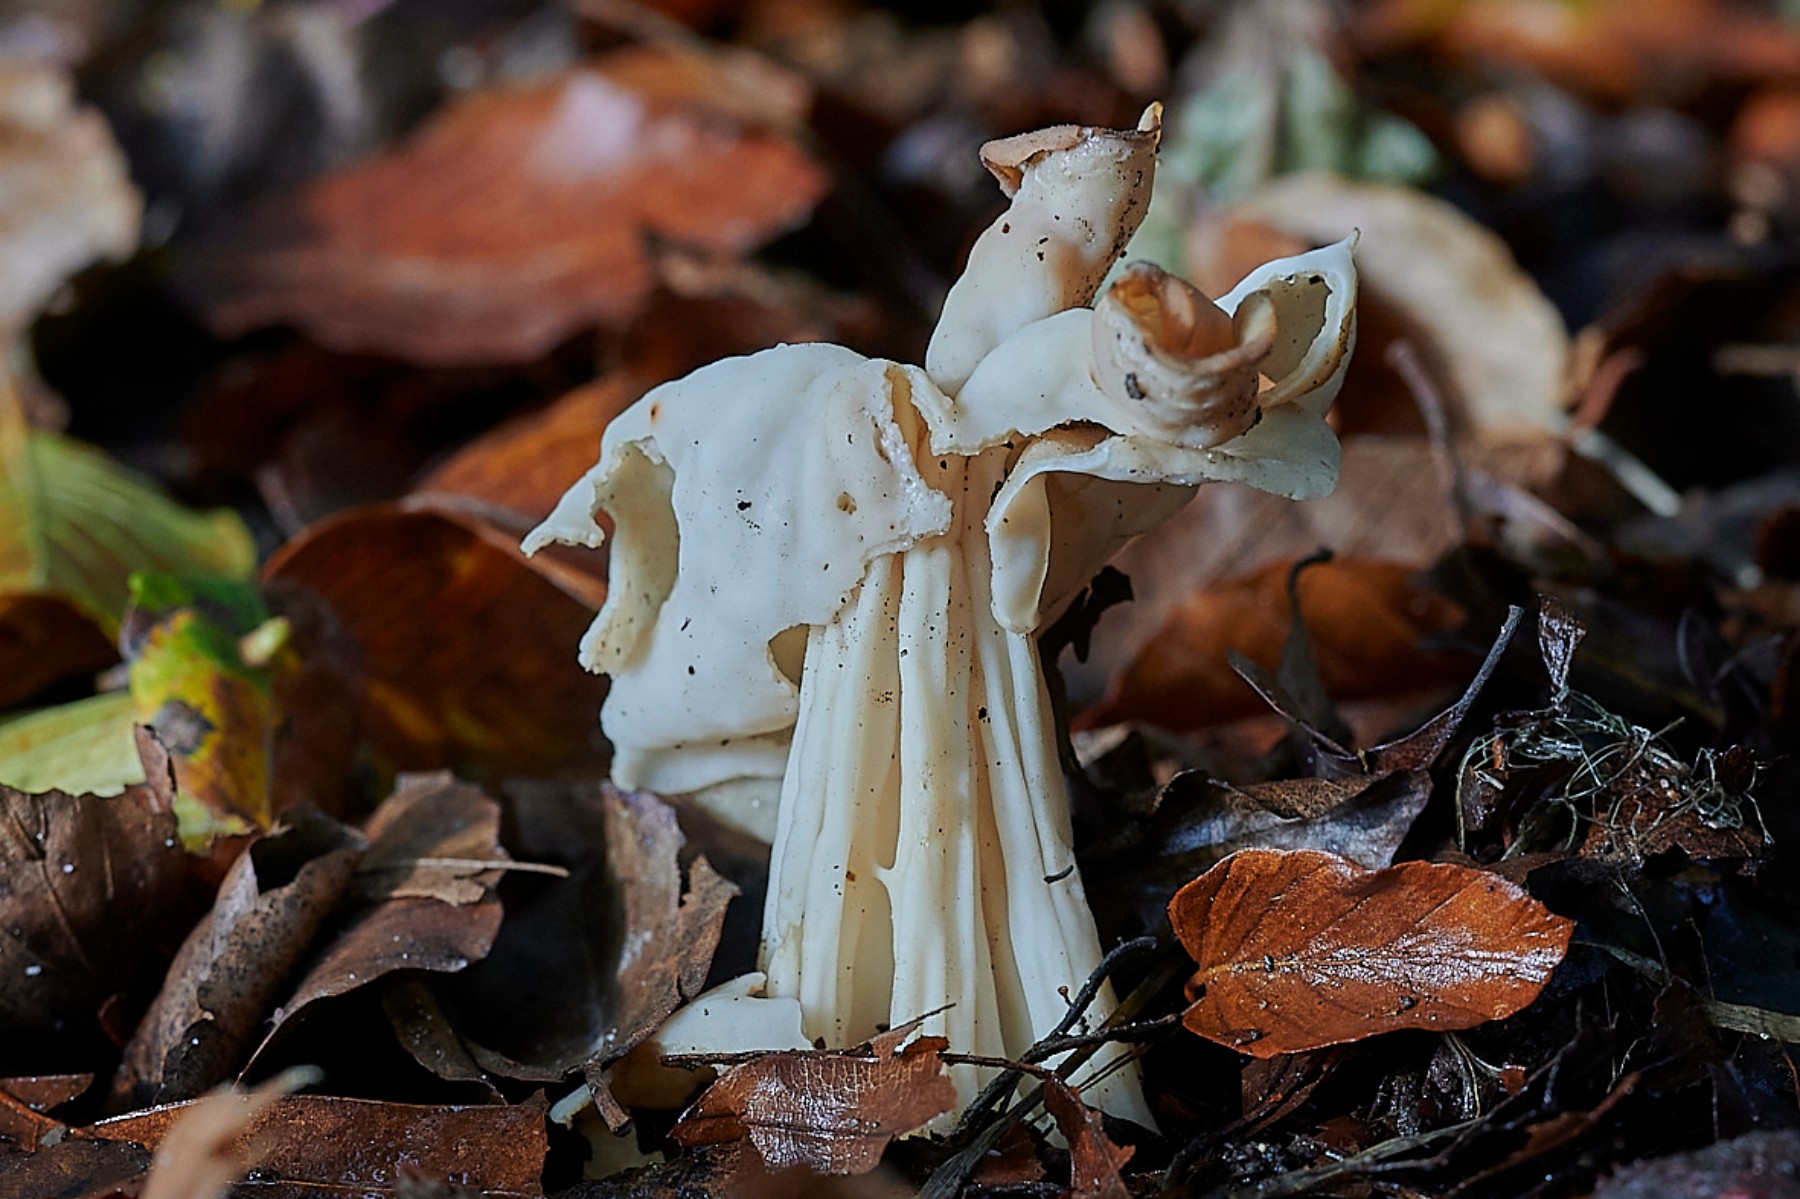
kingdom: Fungi
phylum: Ascomycota
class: Pezizomycetes
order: Pezizales
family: Helvellaceae
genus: Helvella
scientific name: Helvella crispa
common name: kruset foldhat
